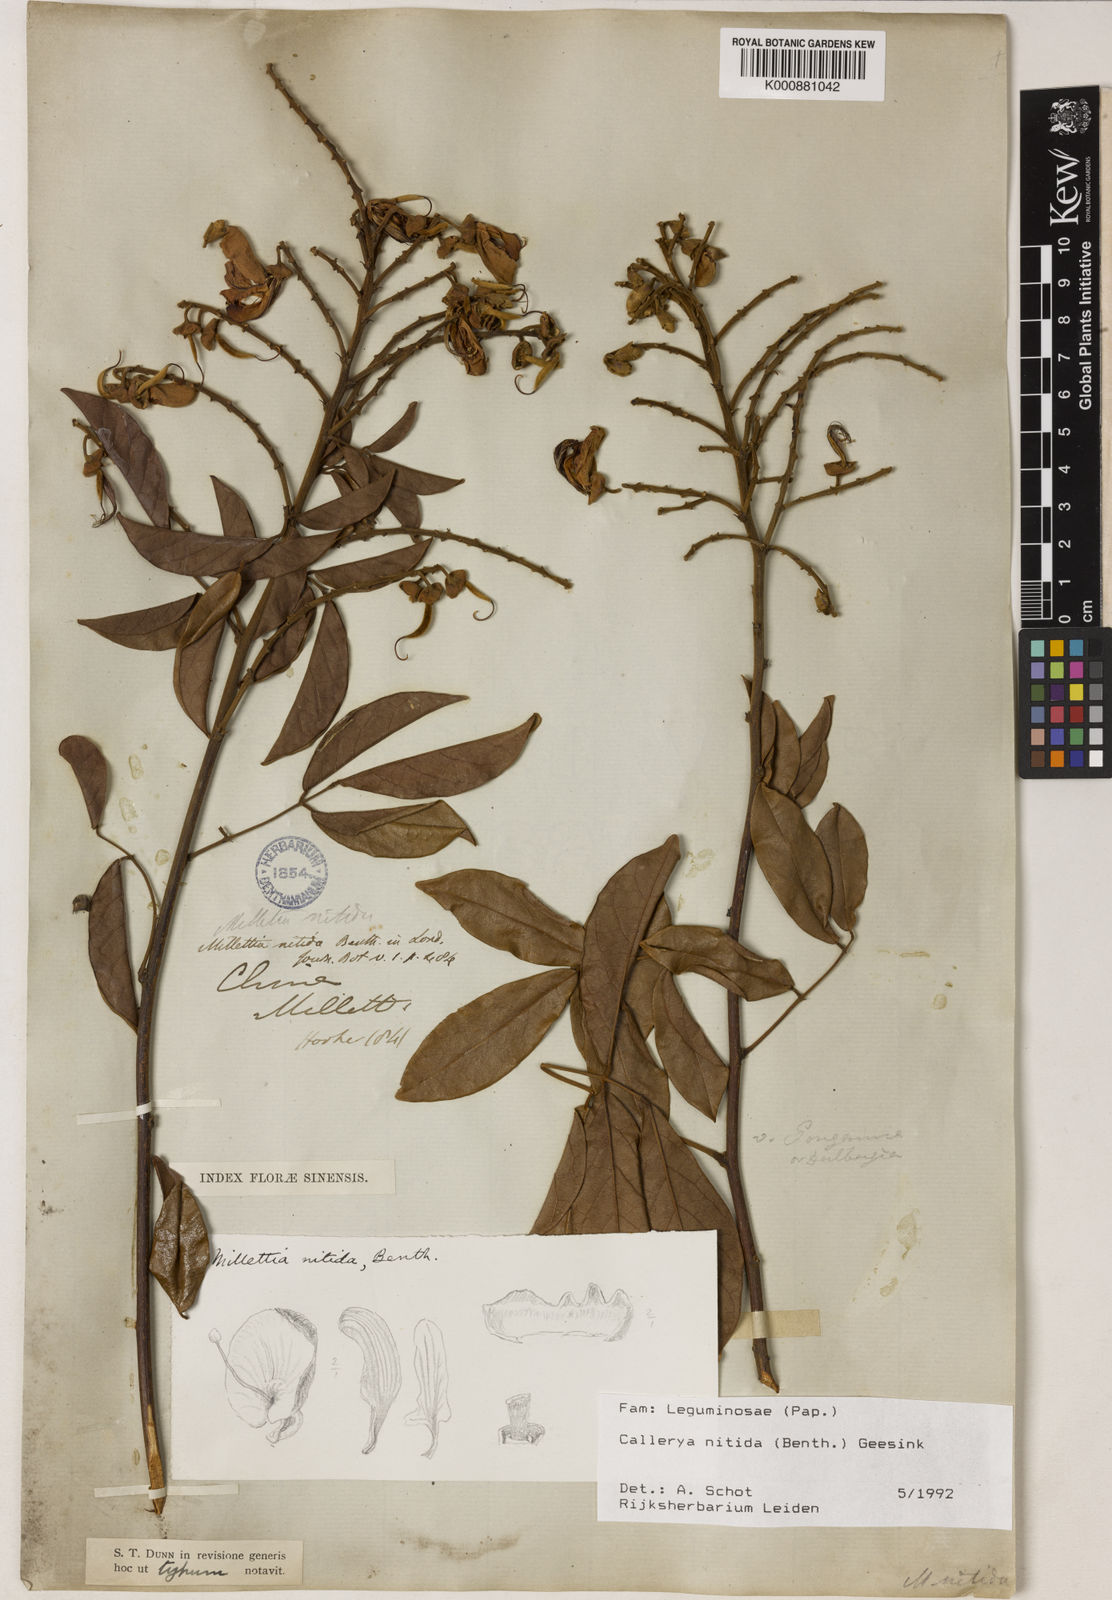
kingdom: Plantae
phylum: Tracheophyta
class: Magnoliopsida
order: Fabales
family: Fabaceae
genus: Callerya
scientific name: Callerya nitida
